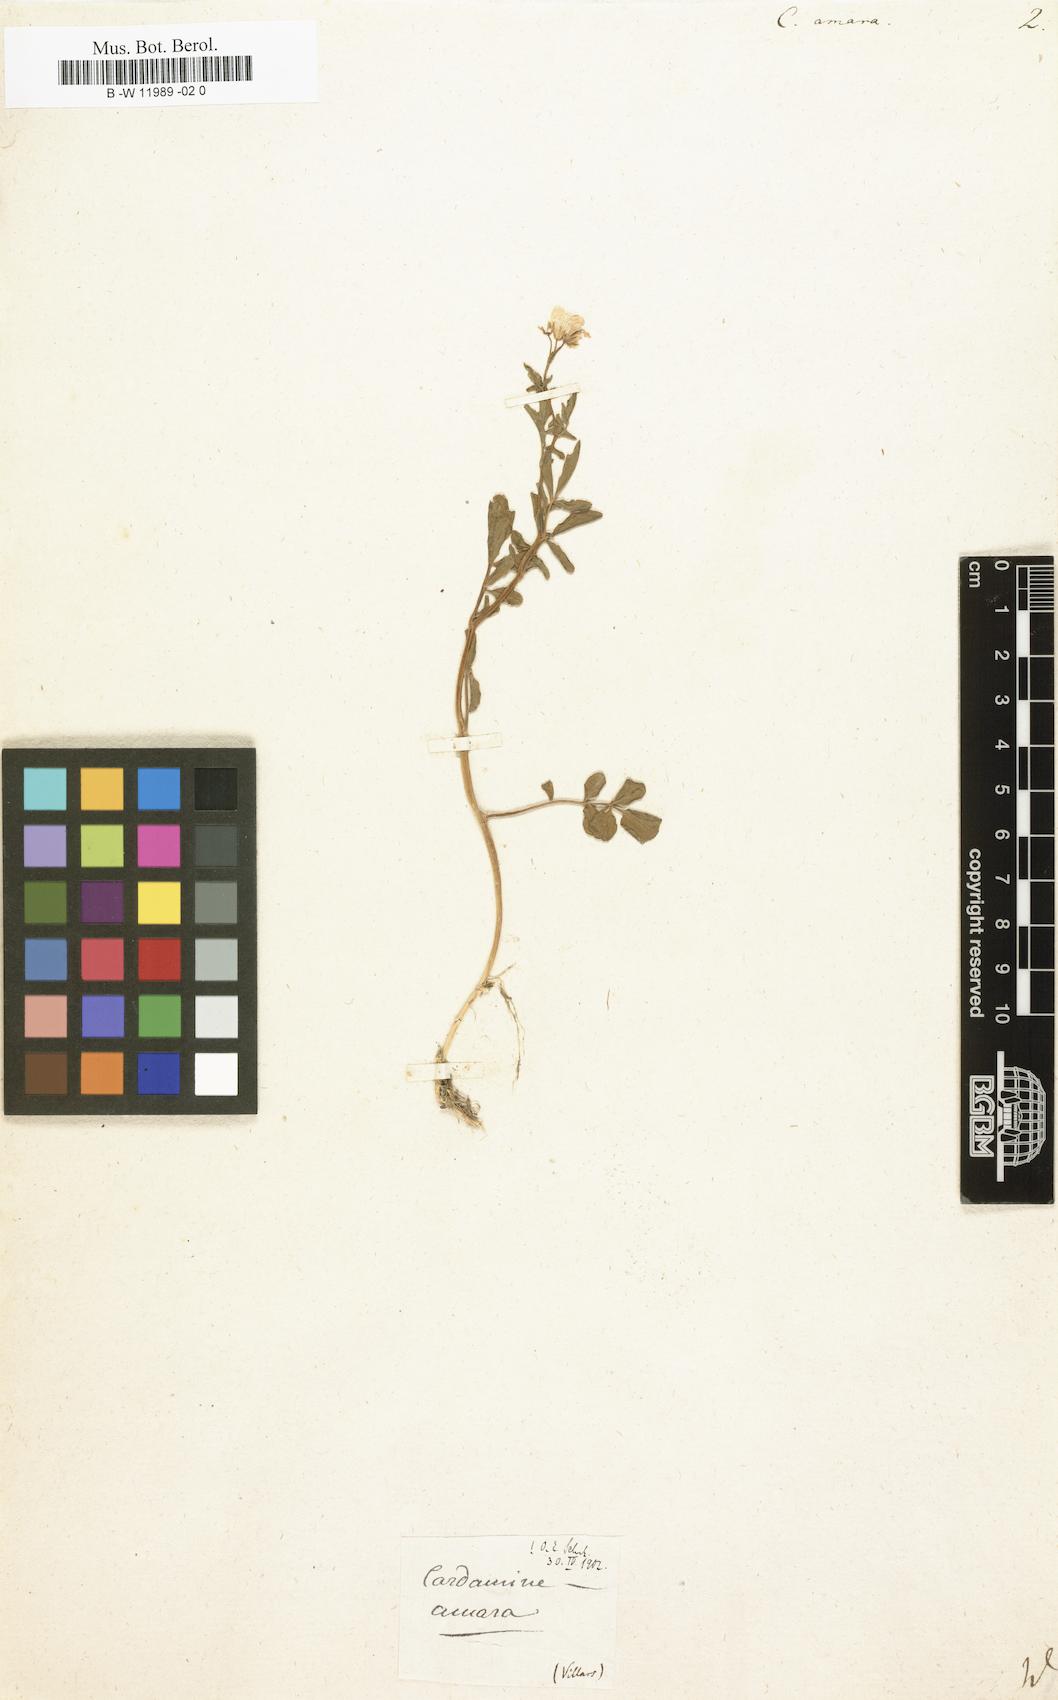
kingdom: Plantae
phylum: Tracheophyta
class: Magnoliopsida
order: Brassicales
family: Brassicaceae
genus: Cardamine
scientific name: Cardamine amara
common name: Large bitter-cress
